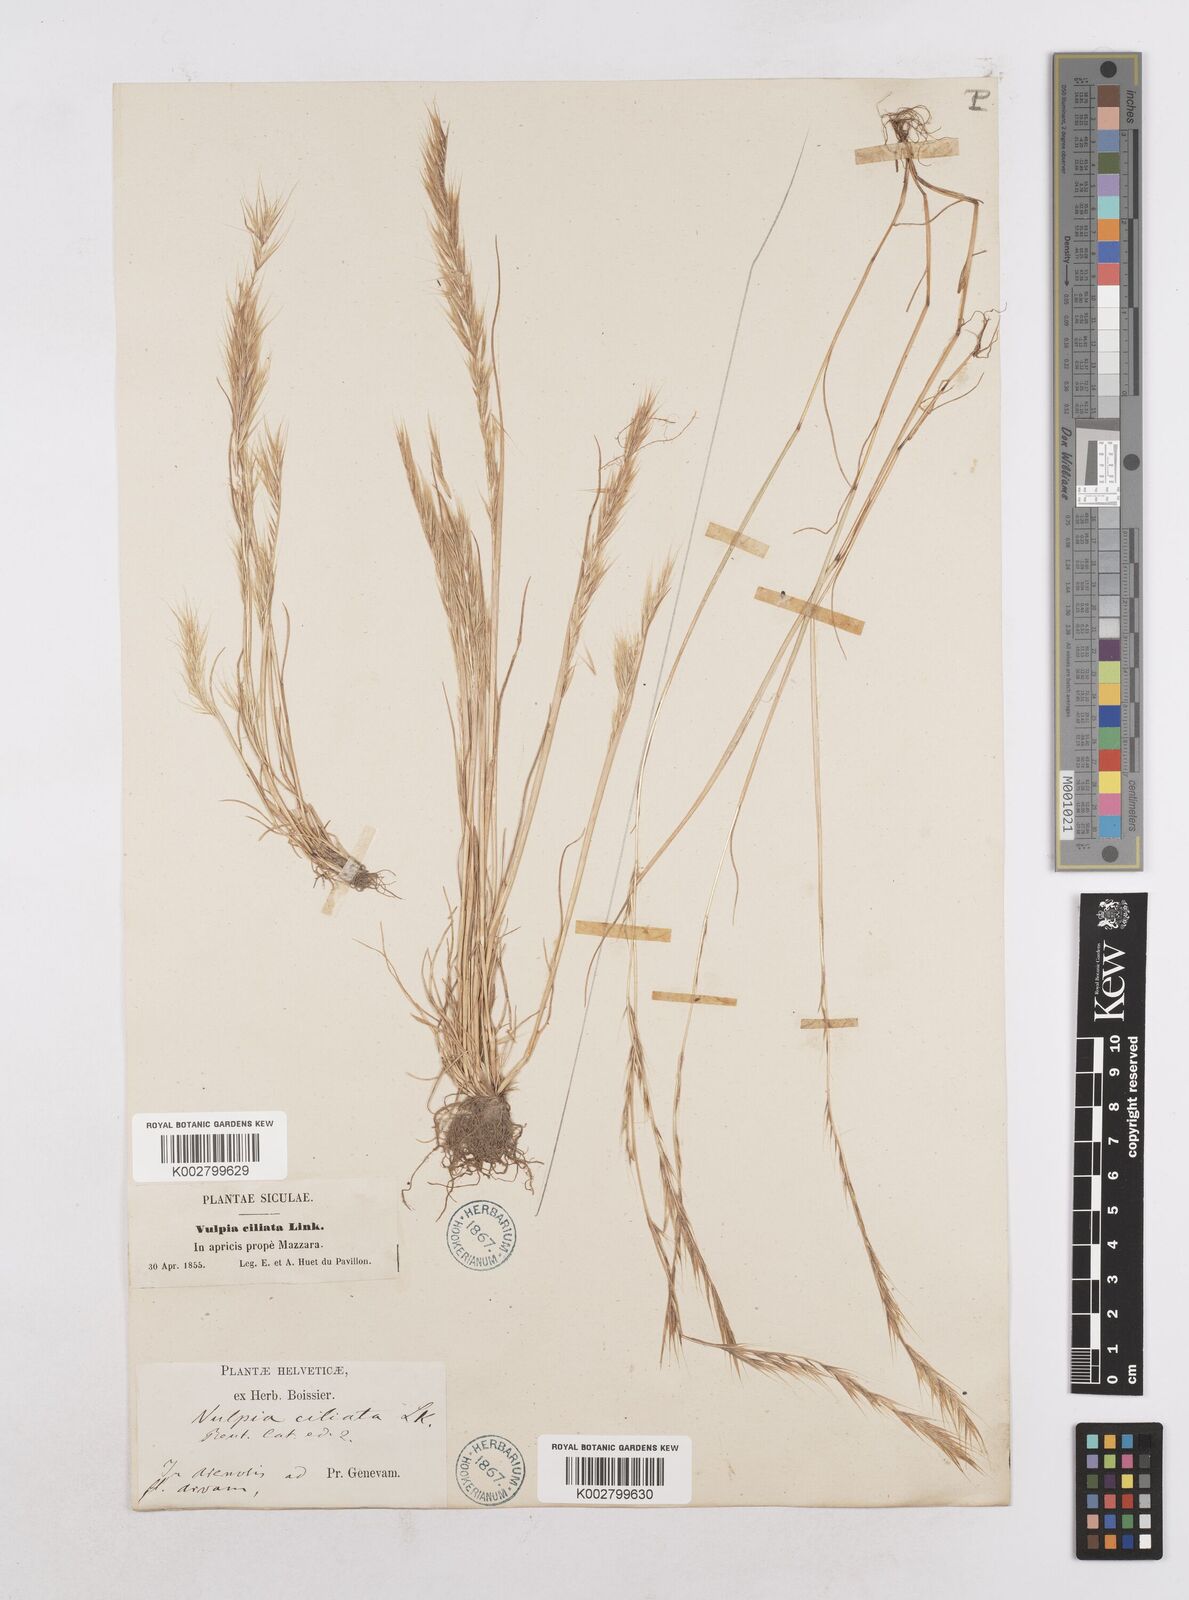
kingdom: Plantae
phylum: Tracheophyta
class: Liliopsida
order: Poales
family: Poaceae
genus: Festuca
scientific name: Festuca
